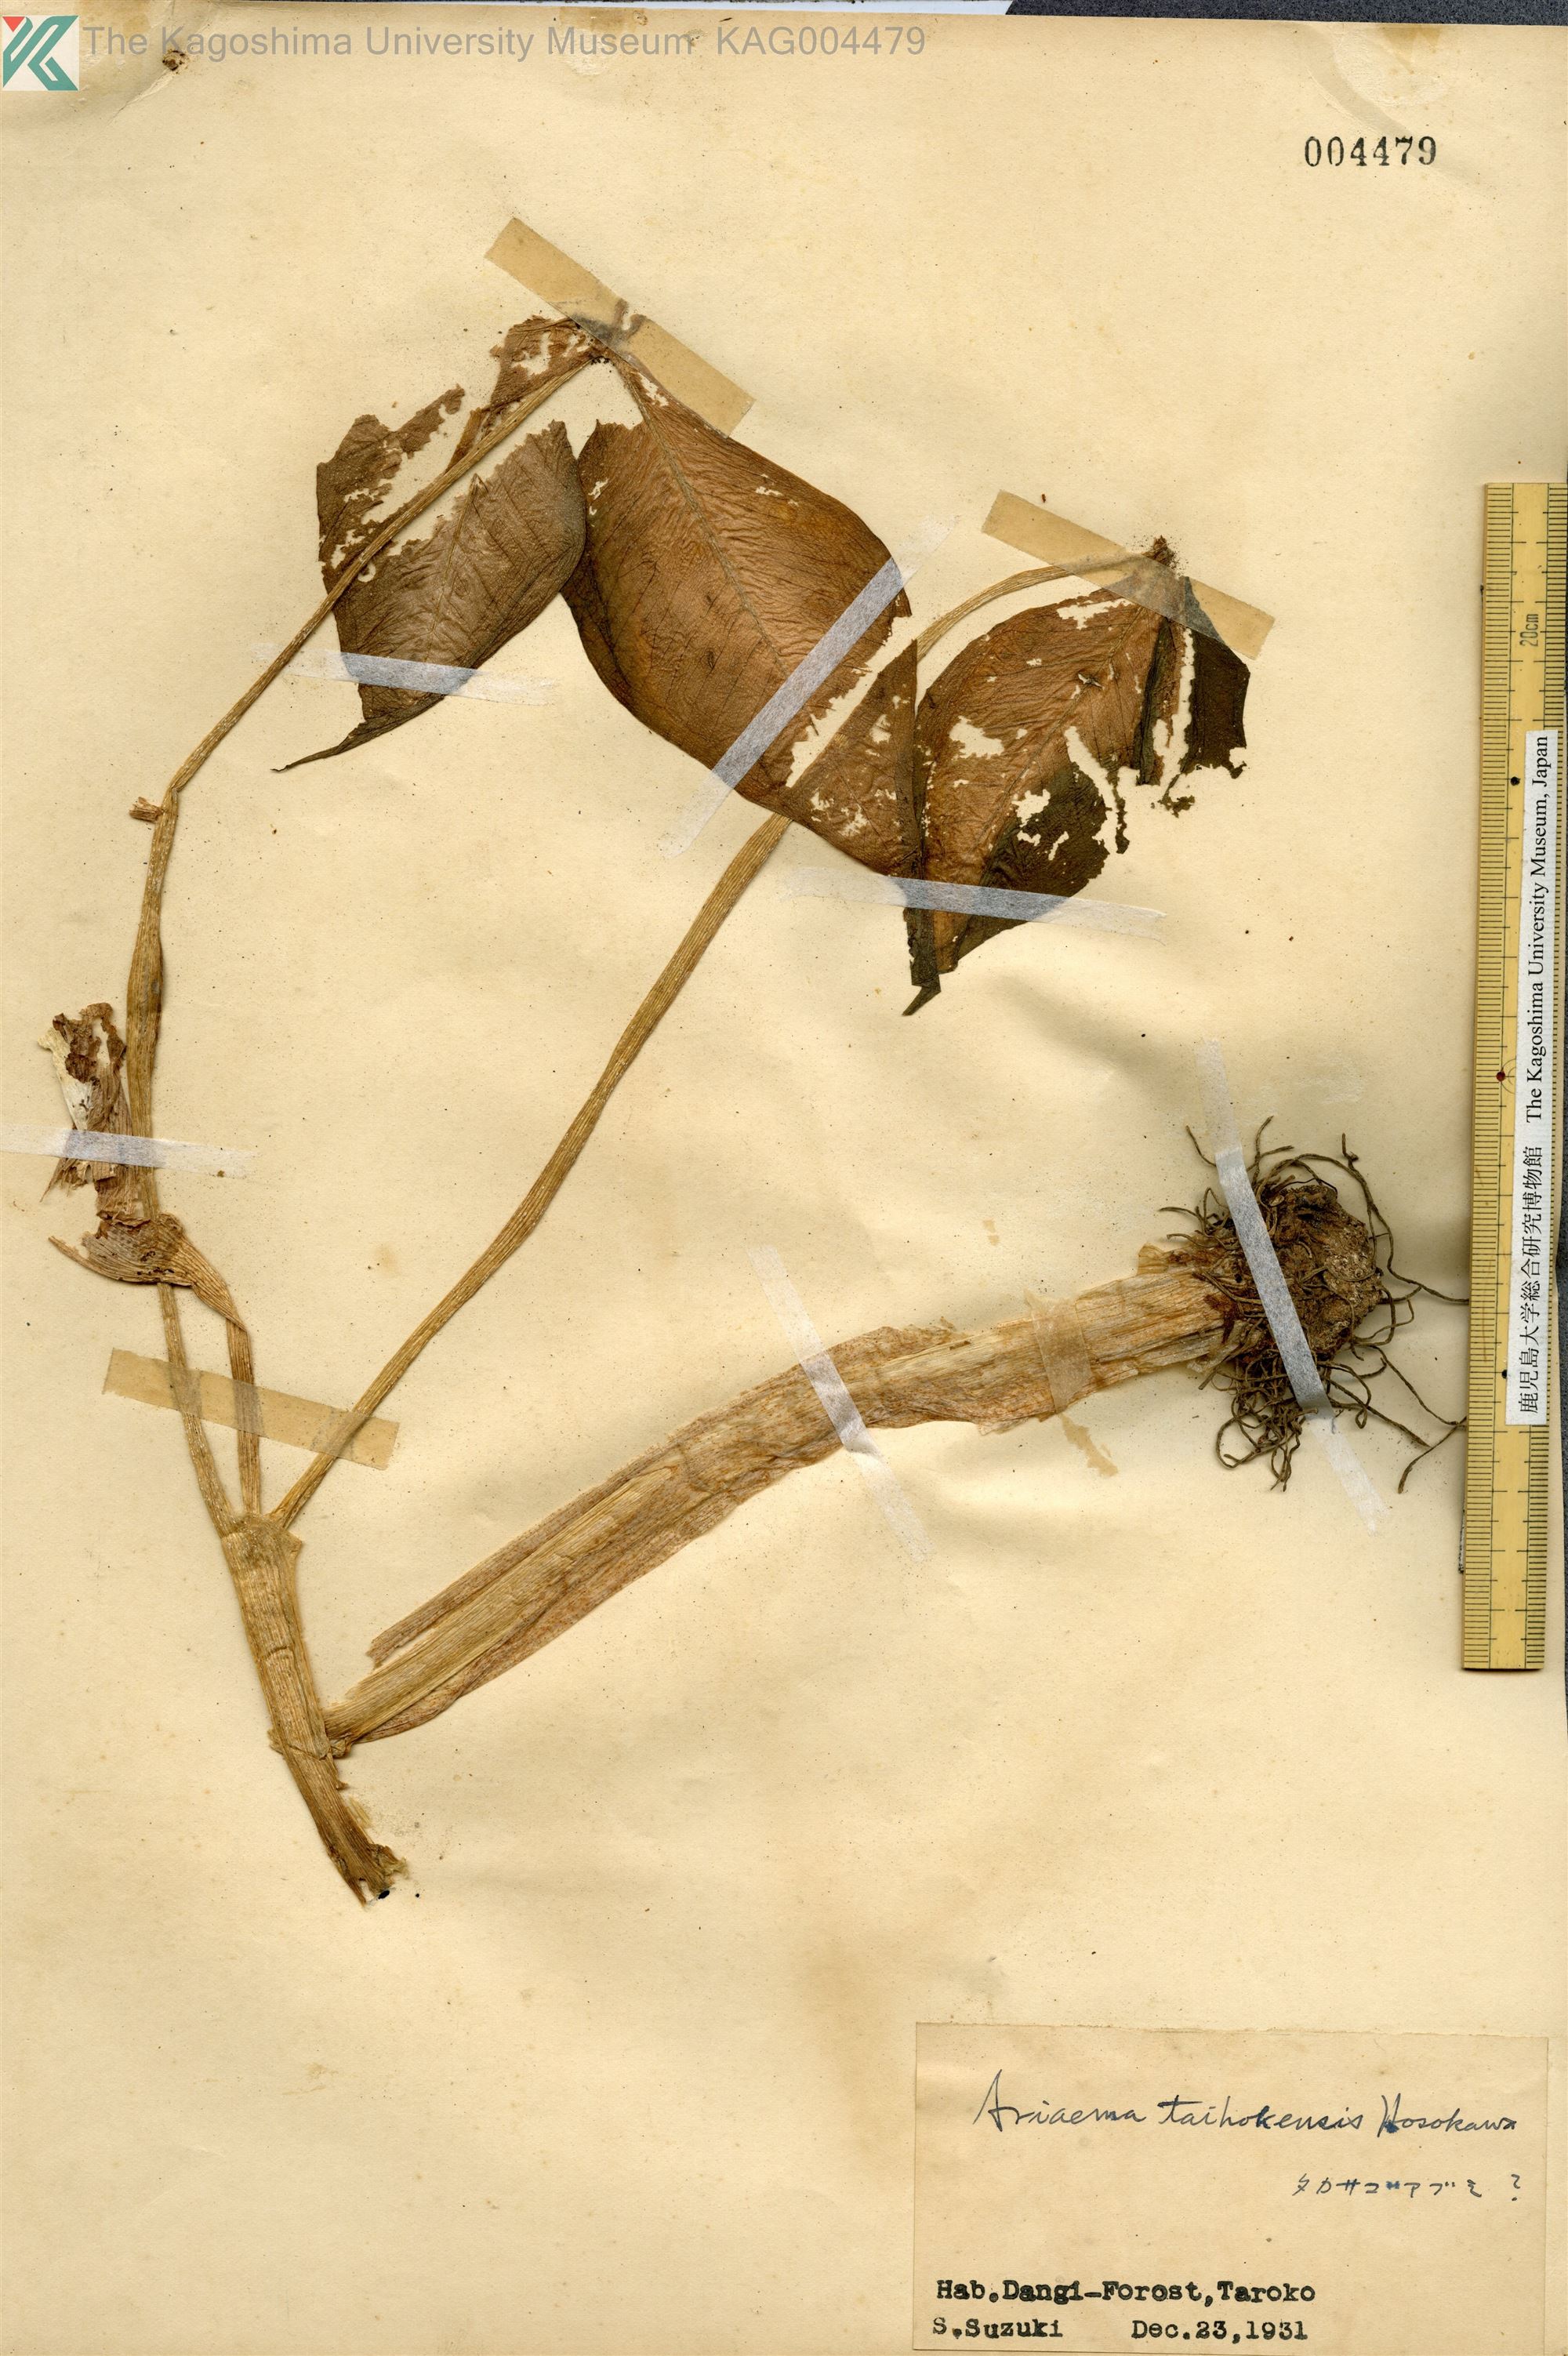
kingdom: Plantae
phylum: Tracheophyta
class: Liliopsida
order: Alismatales
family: Araceae
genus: Arisaema
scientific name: Arisaema ringens
